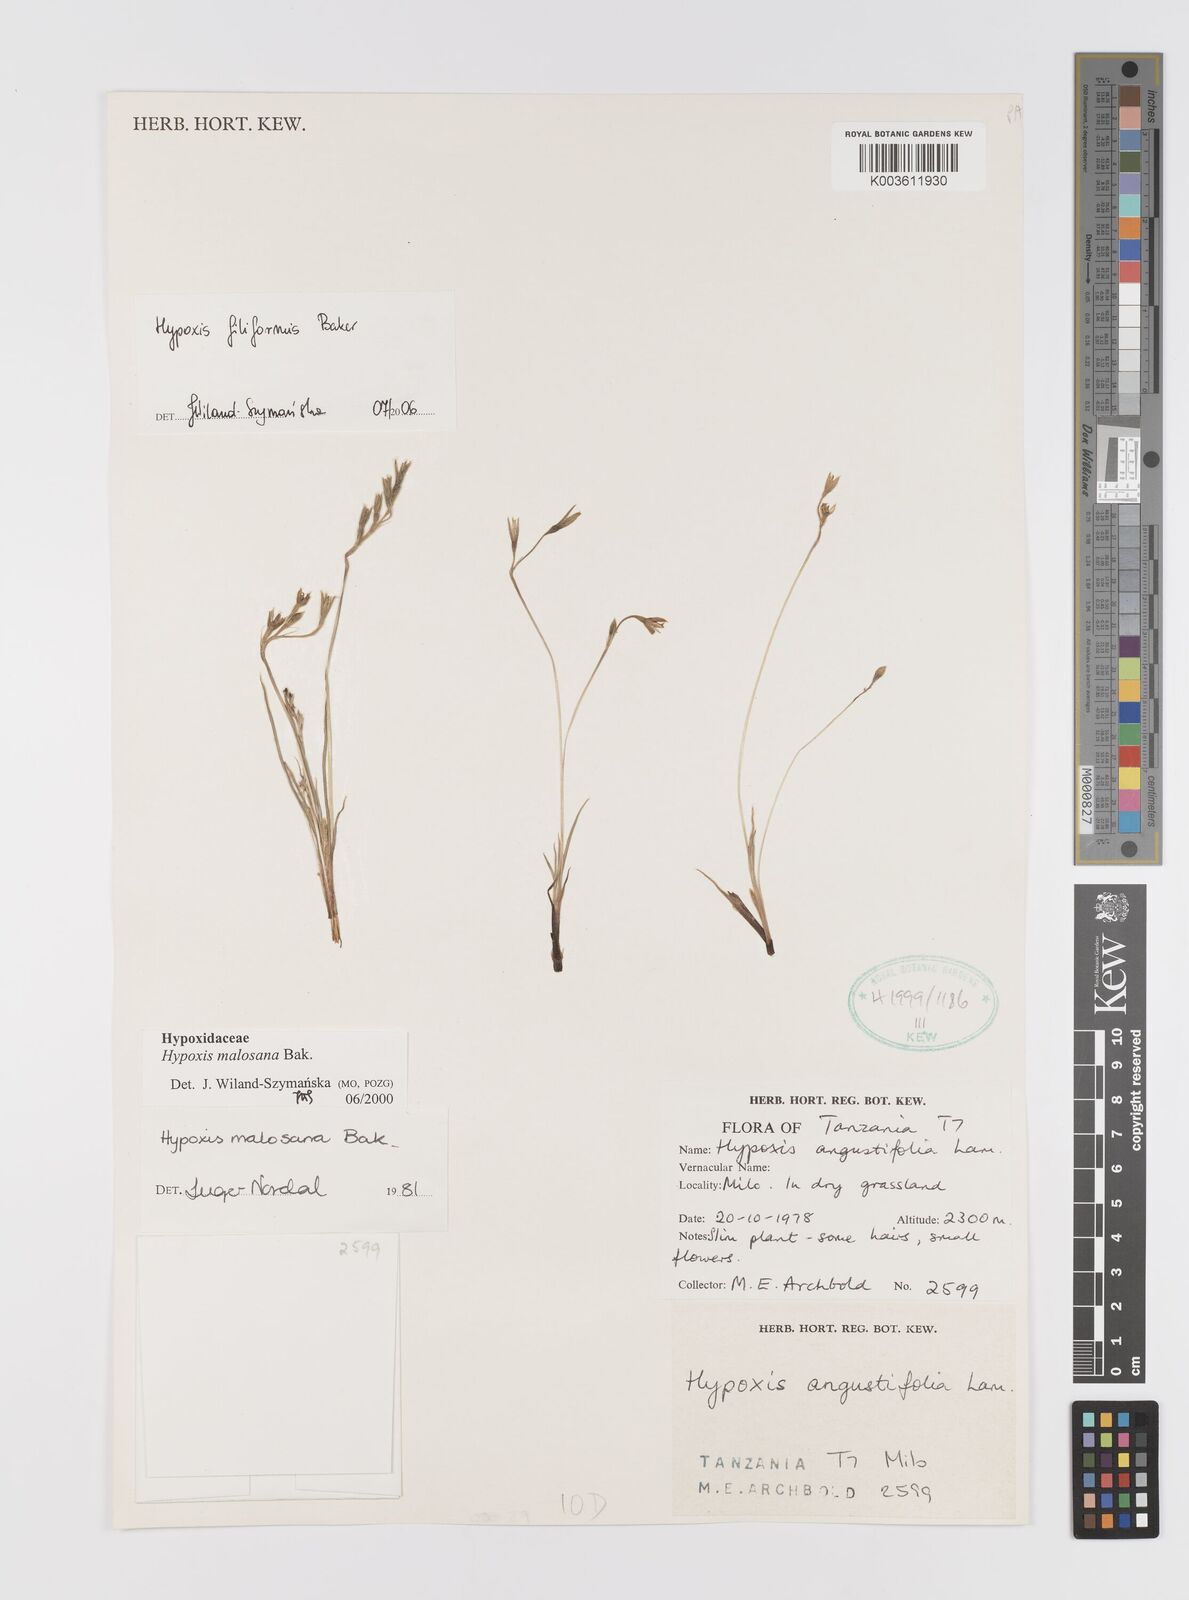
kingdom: Plantae
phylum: Tracheophyta
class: Liliopsida
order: Asparagales
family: Hypoxidaceae
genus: Hypoxis
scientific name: Hypoxis filiformis
